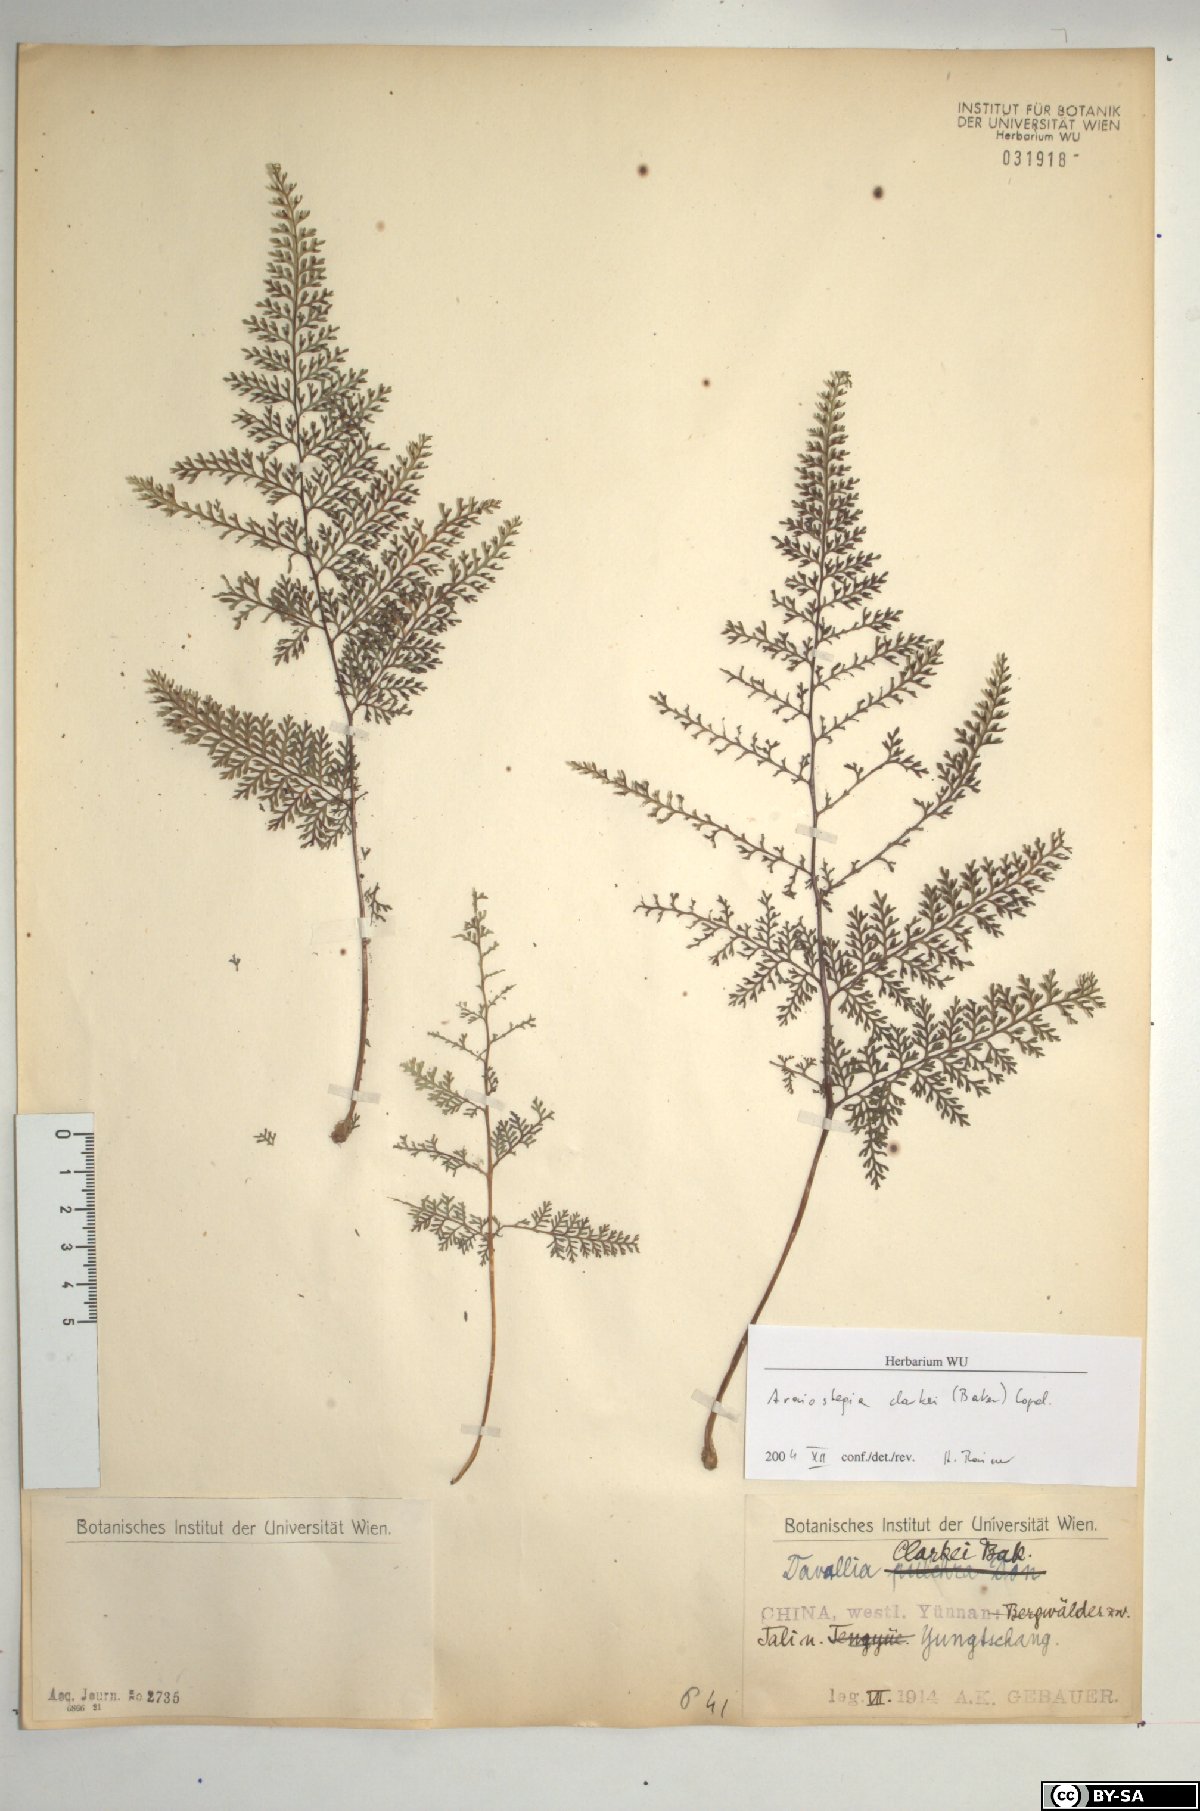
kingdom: Plantae
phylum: Tracheophyta
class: Polypodiopsida
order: Polypodiales
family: Davalliaceae
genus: Davallia
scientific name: Davallia hookeri
